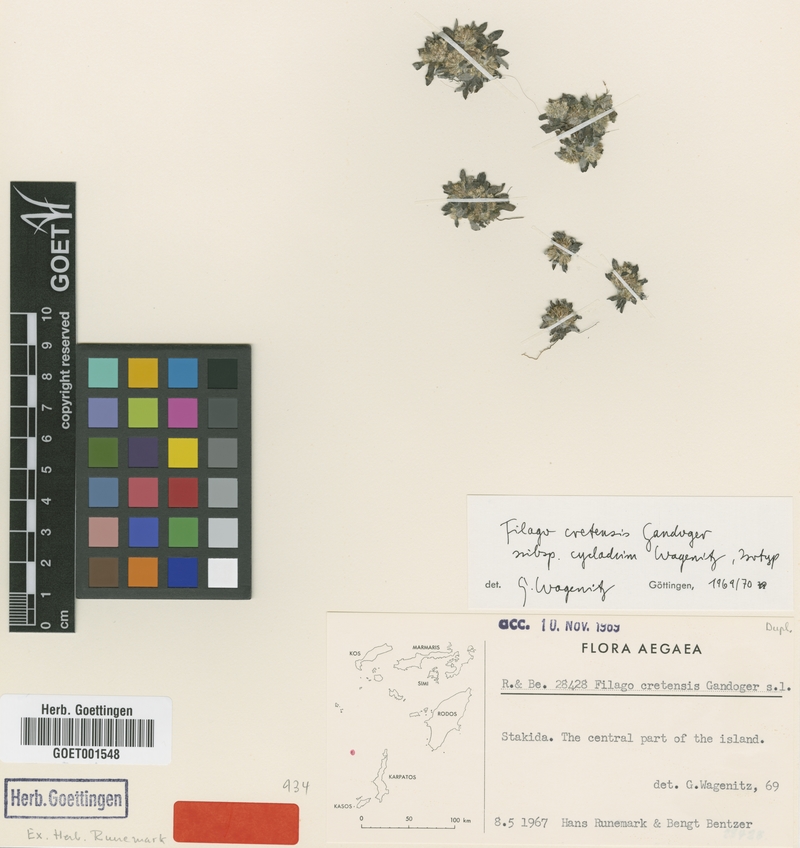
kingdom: Plantae
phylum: Tracheophyta
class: Magnoliopsida
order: Asterales
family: Asteraceae
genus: Filago
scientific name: Filago cretensis
